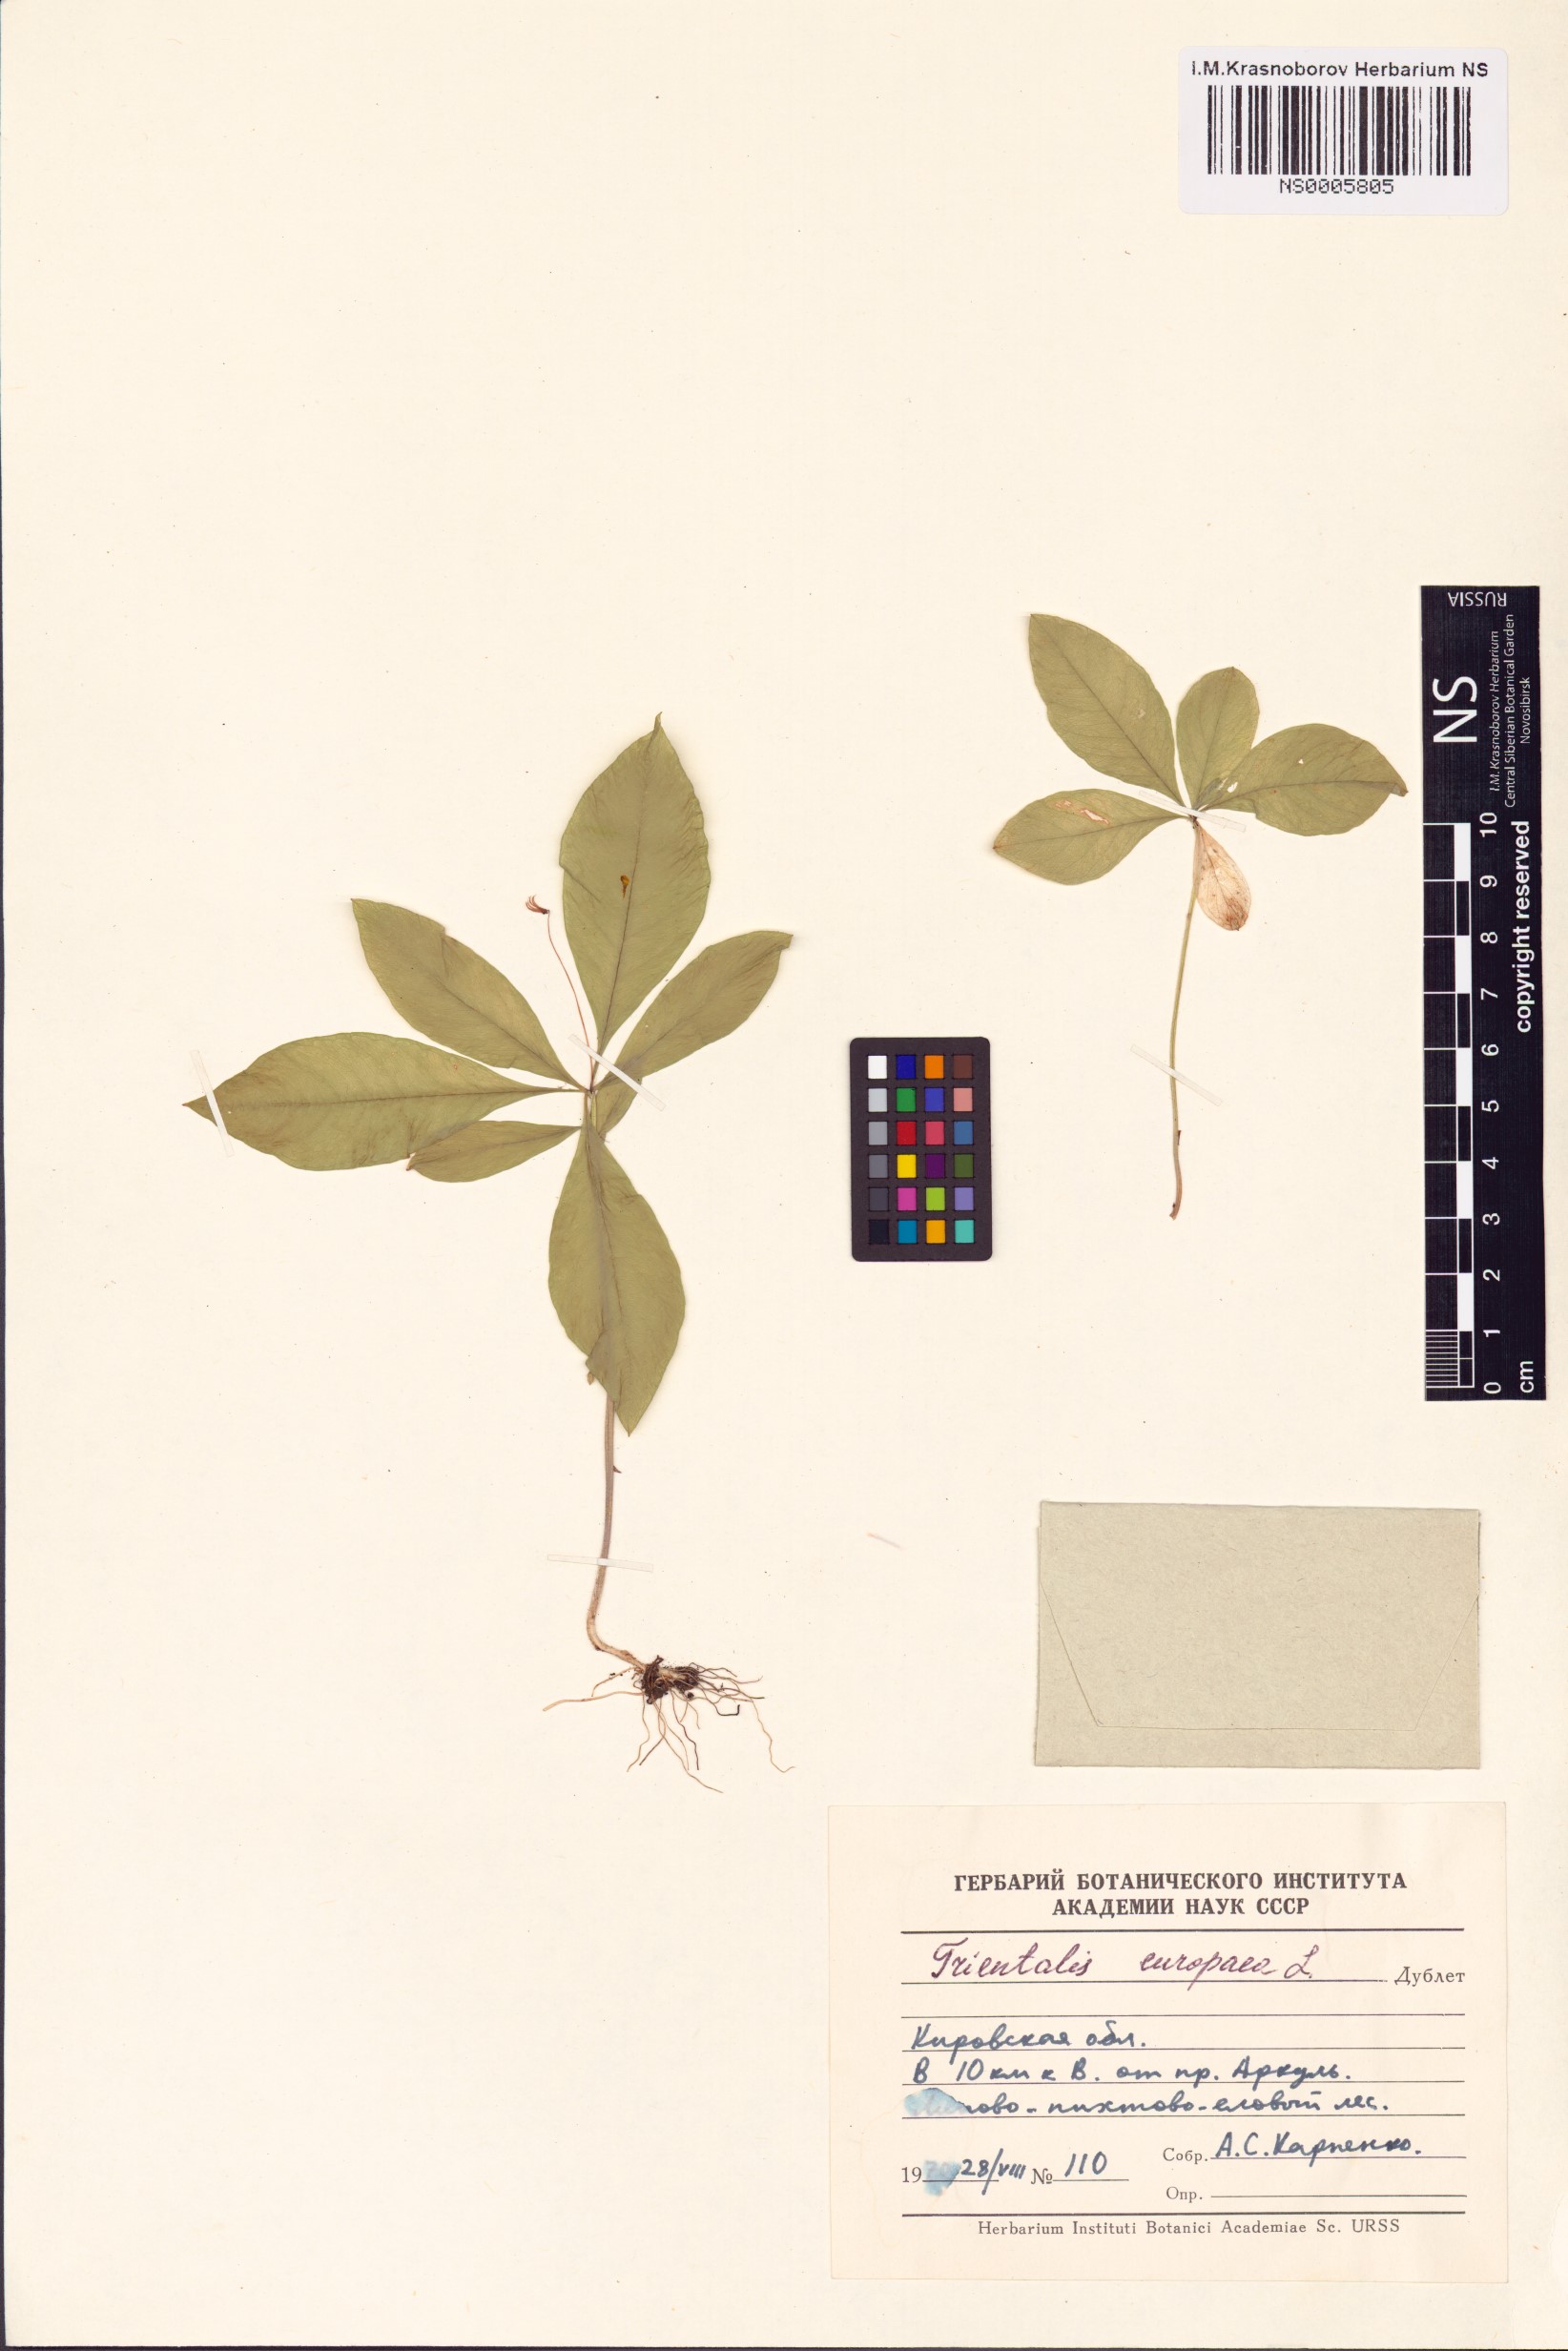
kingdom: Plantae
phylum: Tracheophyta
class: Magnoliopsida
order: Ericales
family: Primulaceae
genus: Lysimachia
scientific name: Lysimachia europaea
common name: Arctic starflower
